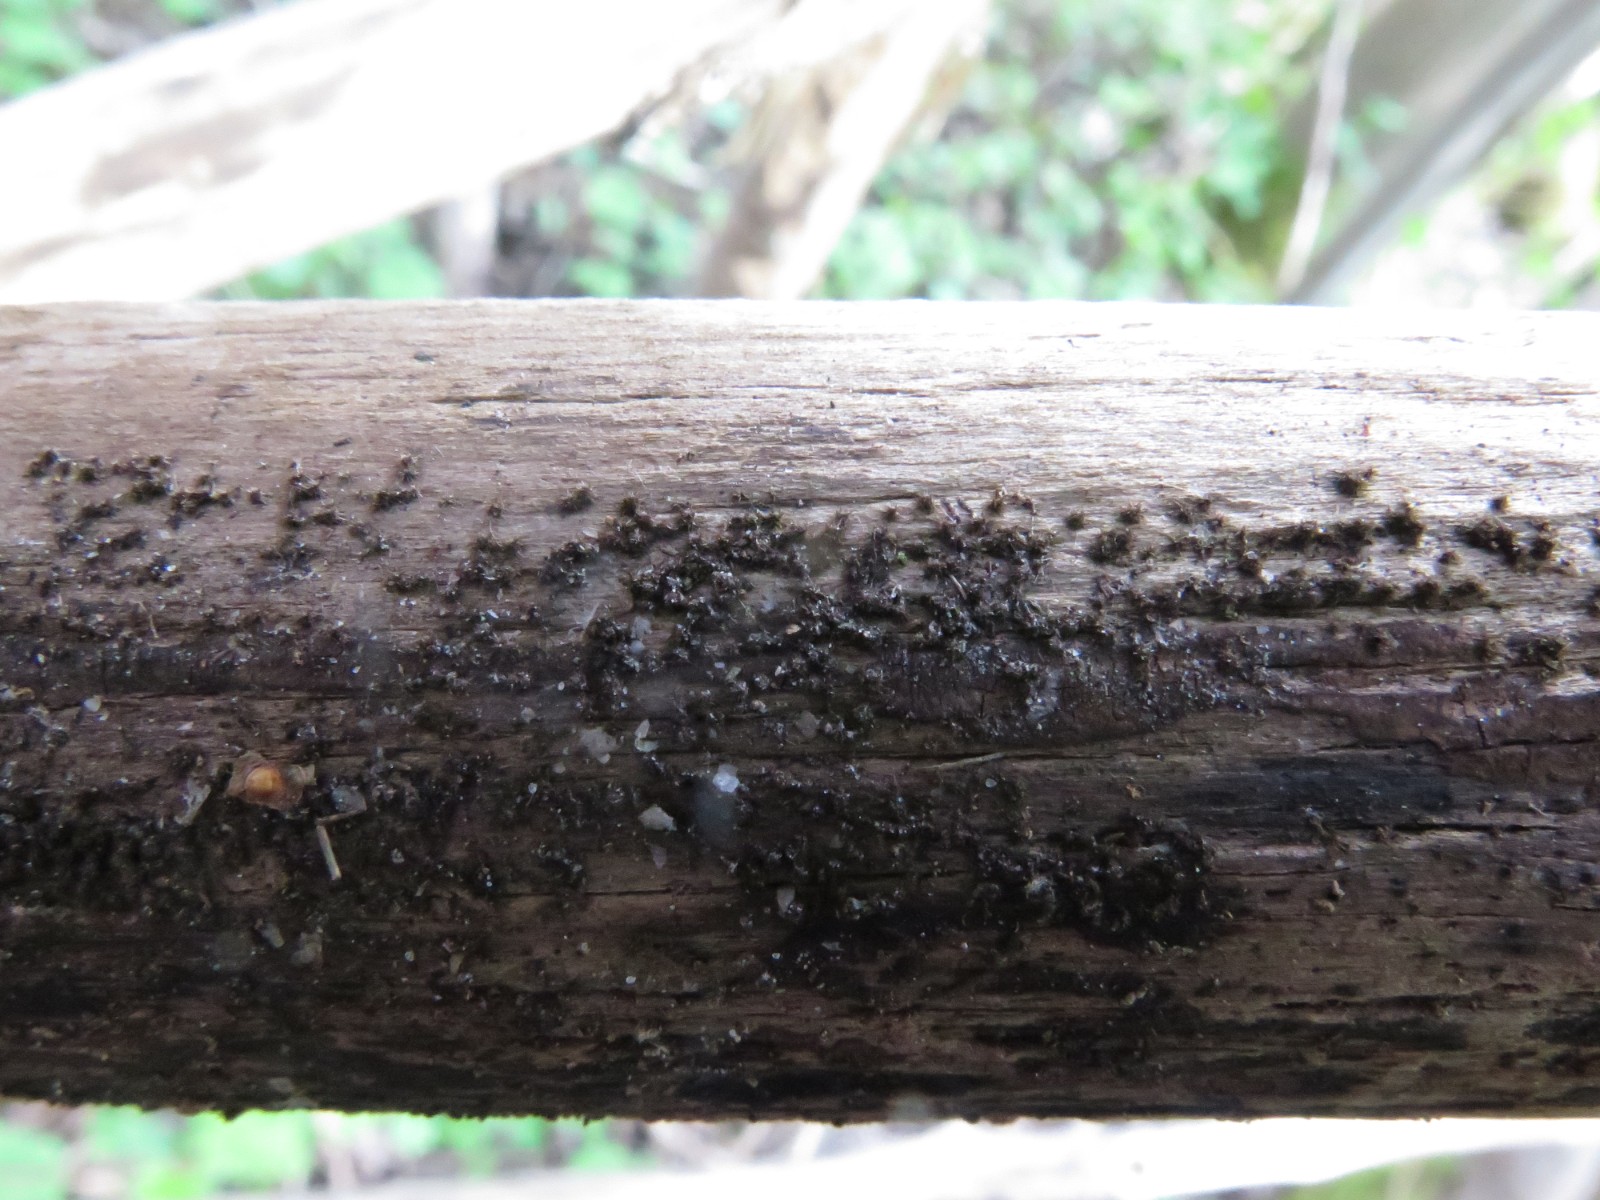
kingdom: Fungi
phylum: Ascomycota
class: Sordariomycetes
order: Sordariales
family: Helminthosphaeriaceae
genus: Echinosphaeria
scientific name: Echinosphaeria canescens
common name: brun børstekerne
